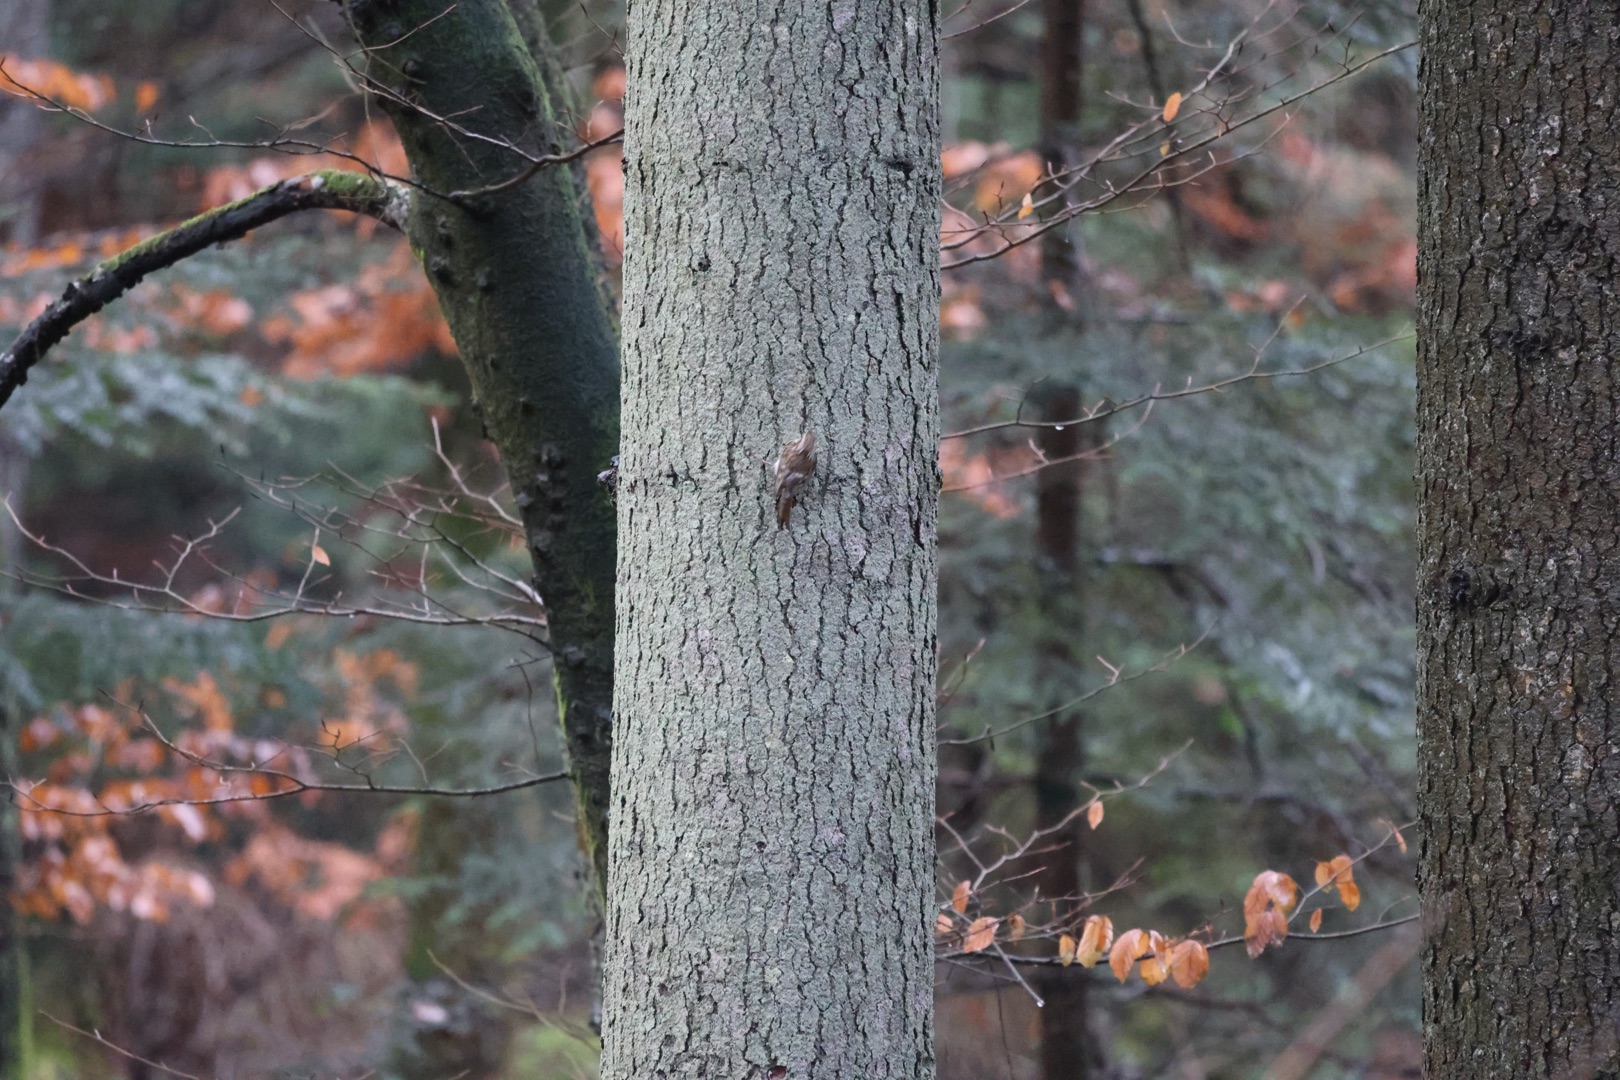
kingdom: Animalia
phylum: Chordata
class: Aves
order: Passeriformes
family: Certhiidae
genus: Certhia
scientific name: Certhia familiaris
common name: Træløber
